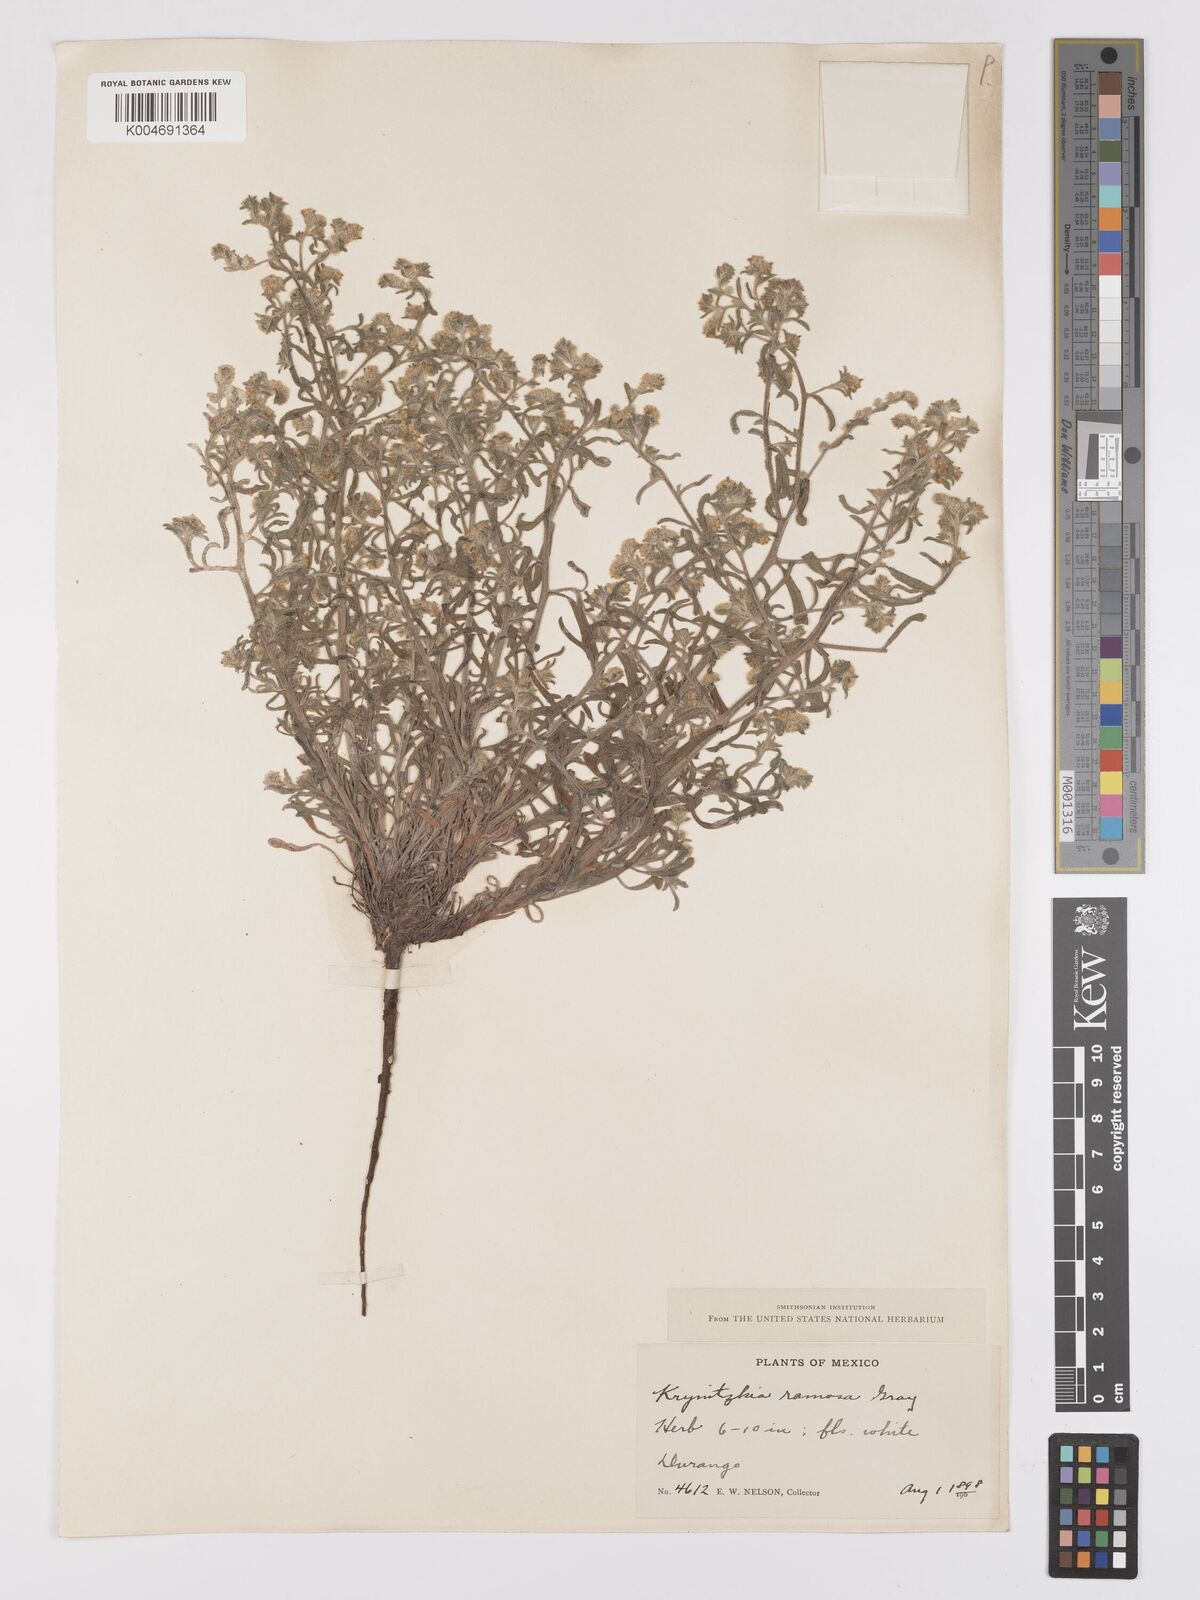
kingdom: Plantae
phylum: Tracheophyta
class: Magnoliopsida
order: Boraginales
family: Boraginaceae
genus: Johnstonella
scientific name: Johnstonella albida
